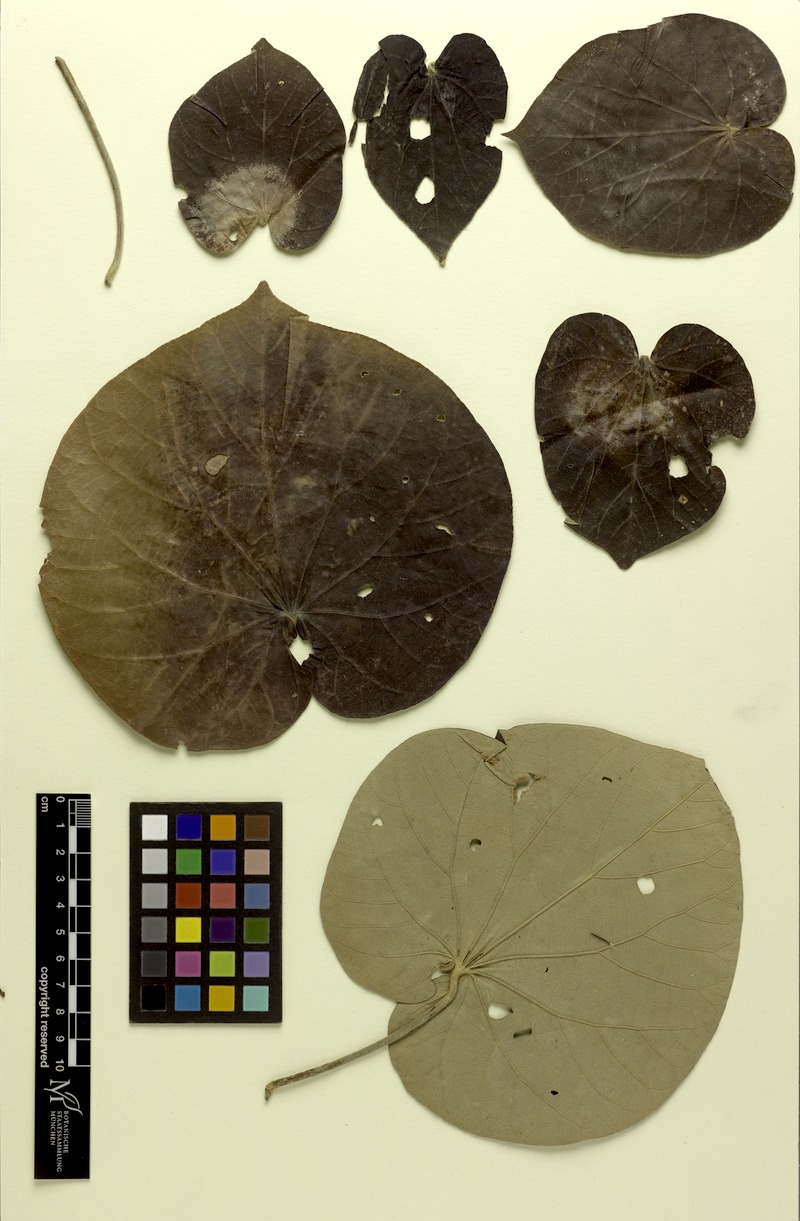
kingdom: Plantae
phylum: Tracheophyta
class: Magnoliopsida
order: Malvales
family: Malvaceae
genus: Talipariti
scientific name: Talipariti tiliaceum
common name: Sea hibiscus
